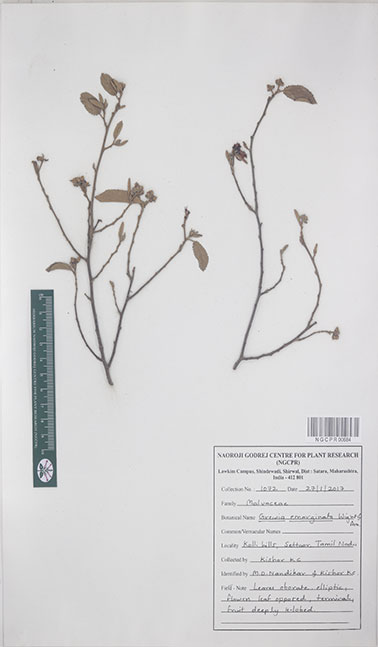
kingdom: Plantae
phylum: Tracheophyta
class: Magnoliopsida
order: Malvales
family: Malvaceae
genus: Grewia
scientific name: Grewia oppositifolia
